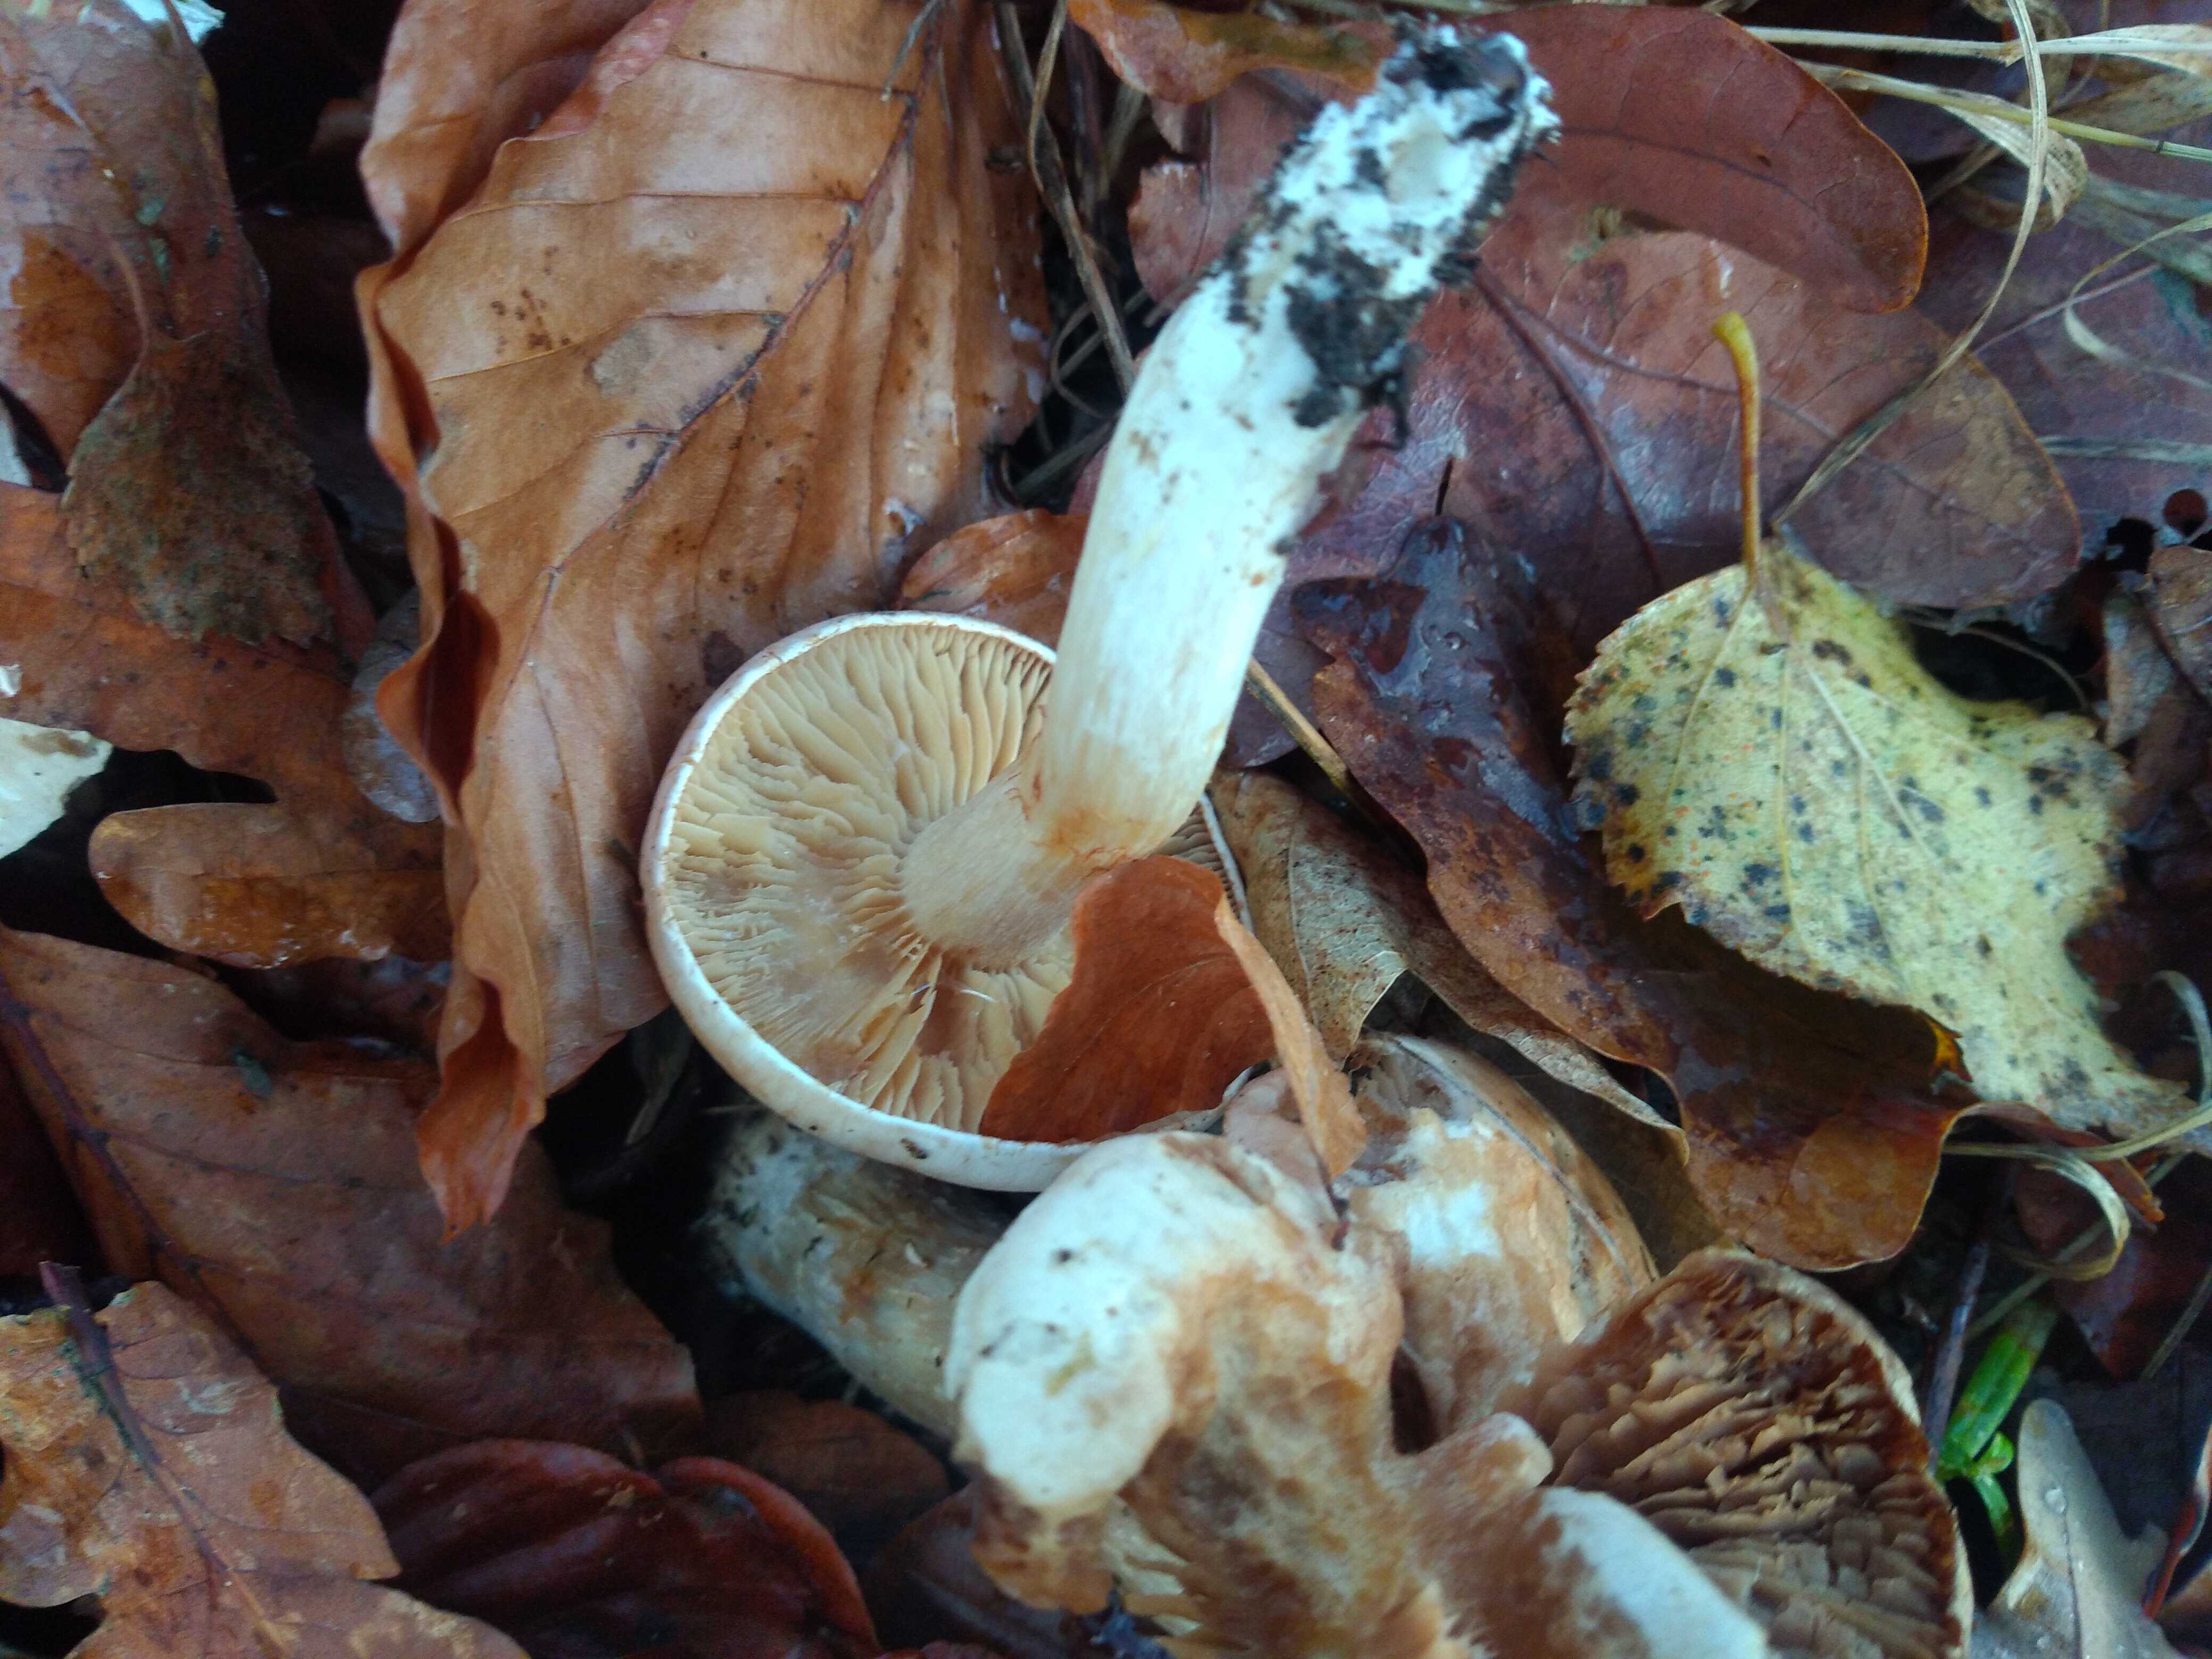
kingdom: Fungi
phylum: Basidiomycota
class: Agaricomycetes
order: Agaricales
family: Cortinariaceae
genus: Thaxterogaster
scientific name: Thaxterogaster leucoluteolus
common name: isabella slørhat
